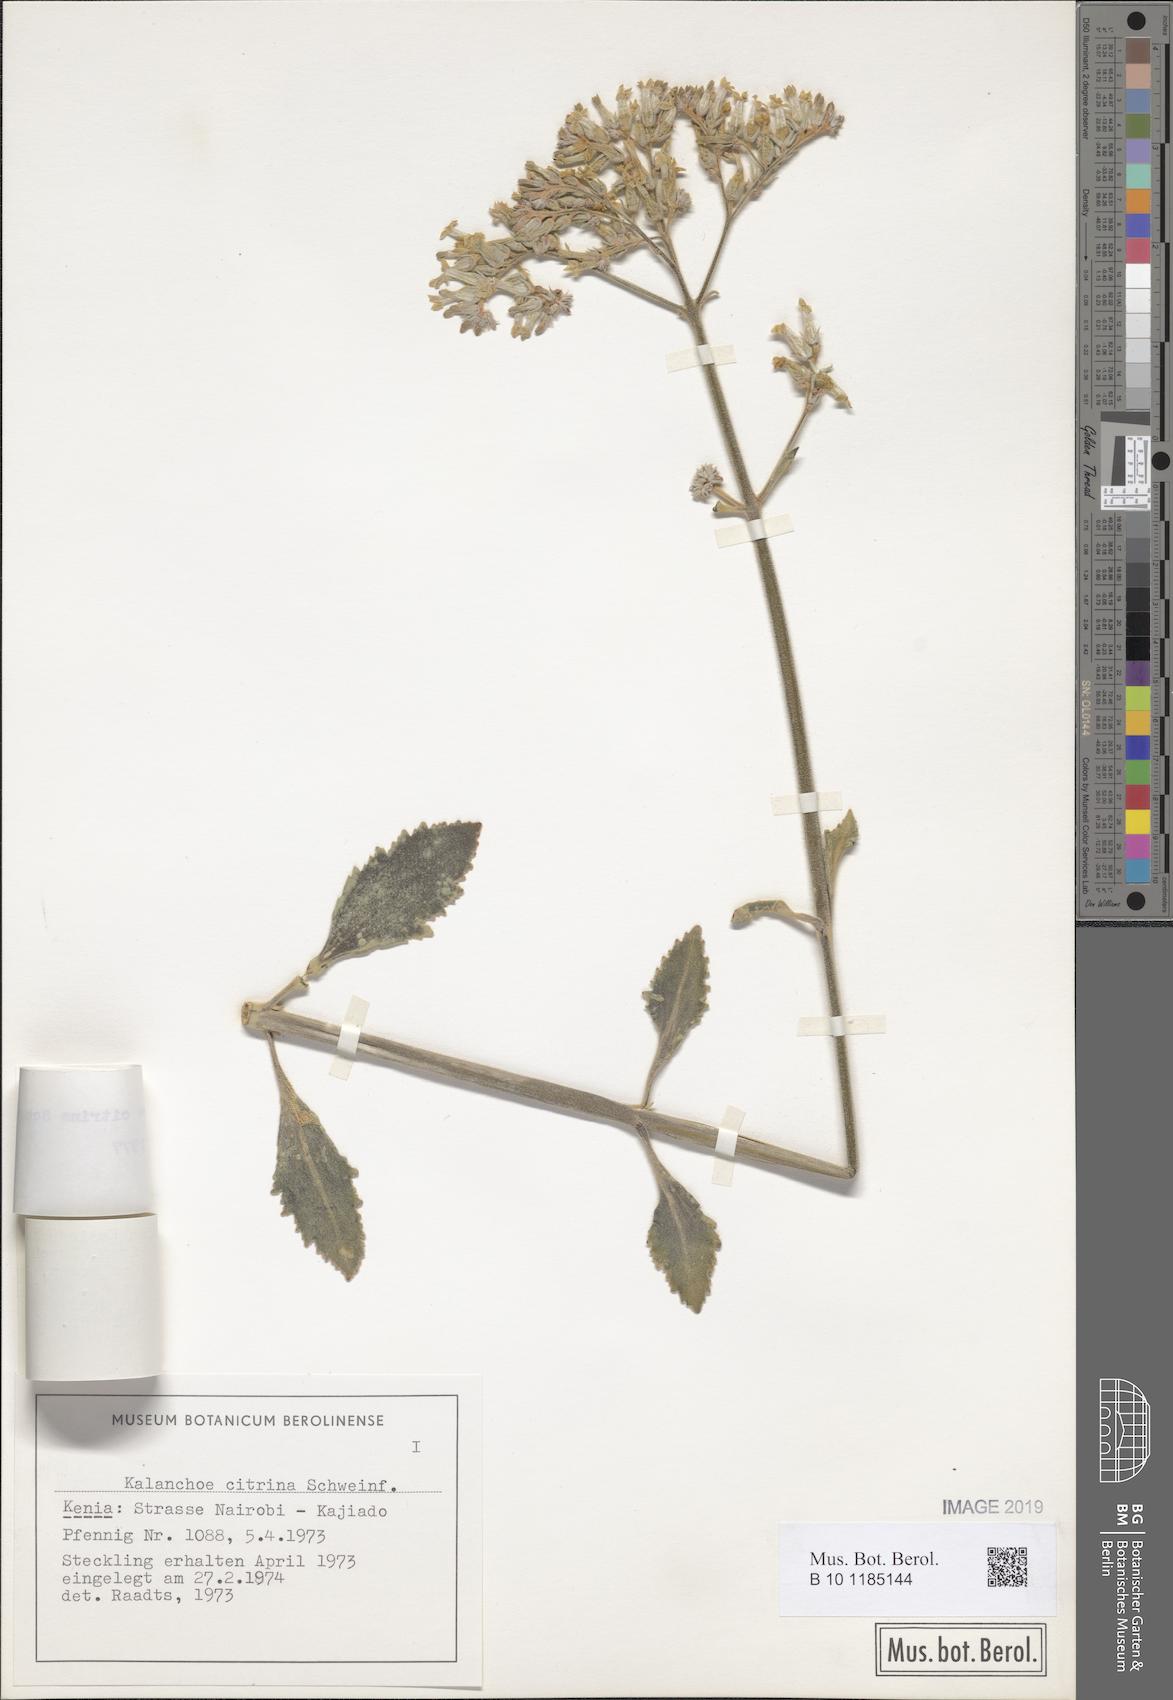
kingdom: Plantae
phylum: Tracheophyta
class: Magnoliopsida
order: Saxifragales
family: Crassulaceae
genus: Kalanchoe
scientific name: Kalanchoe citrina
